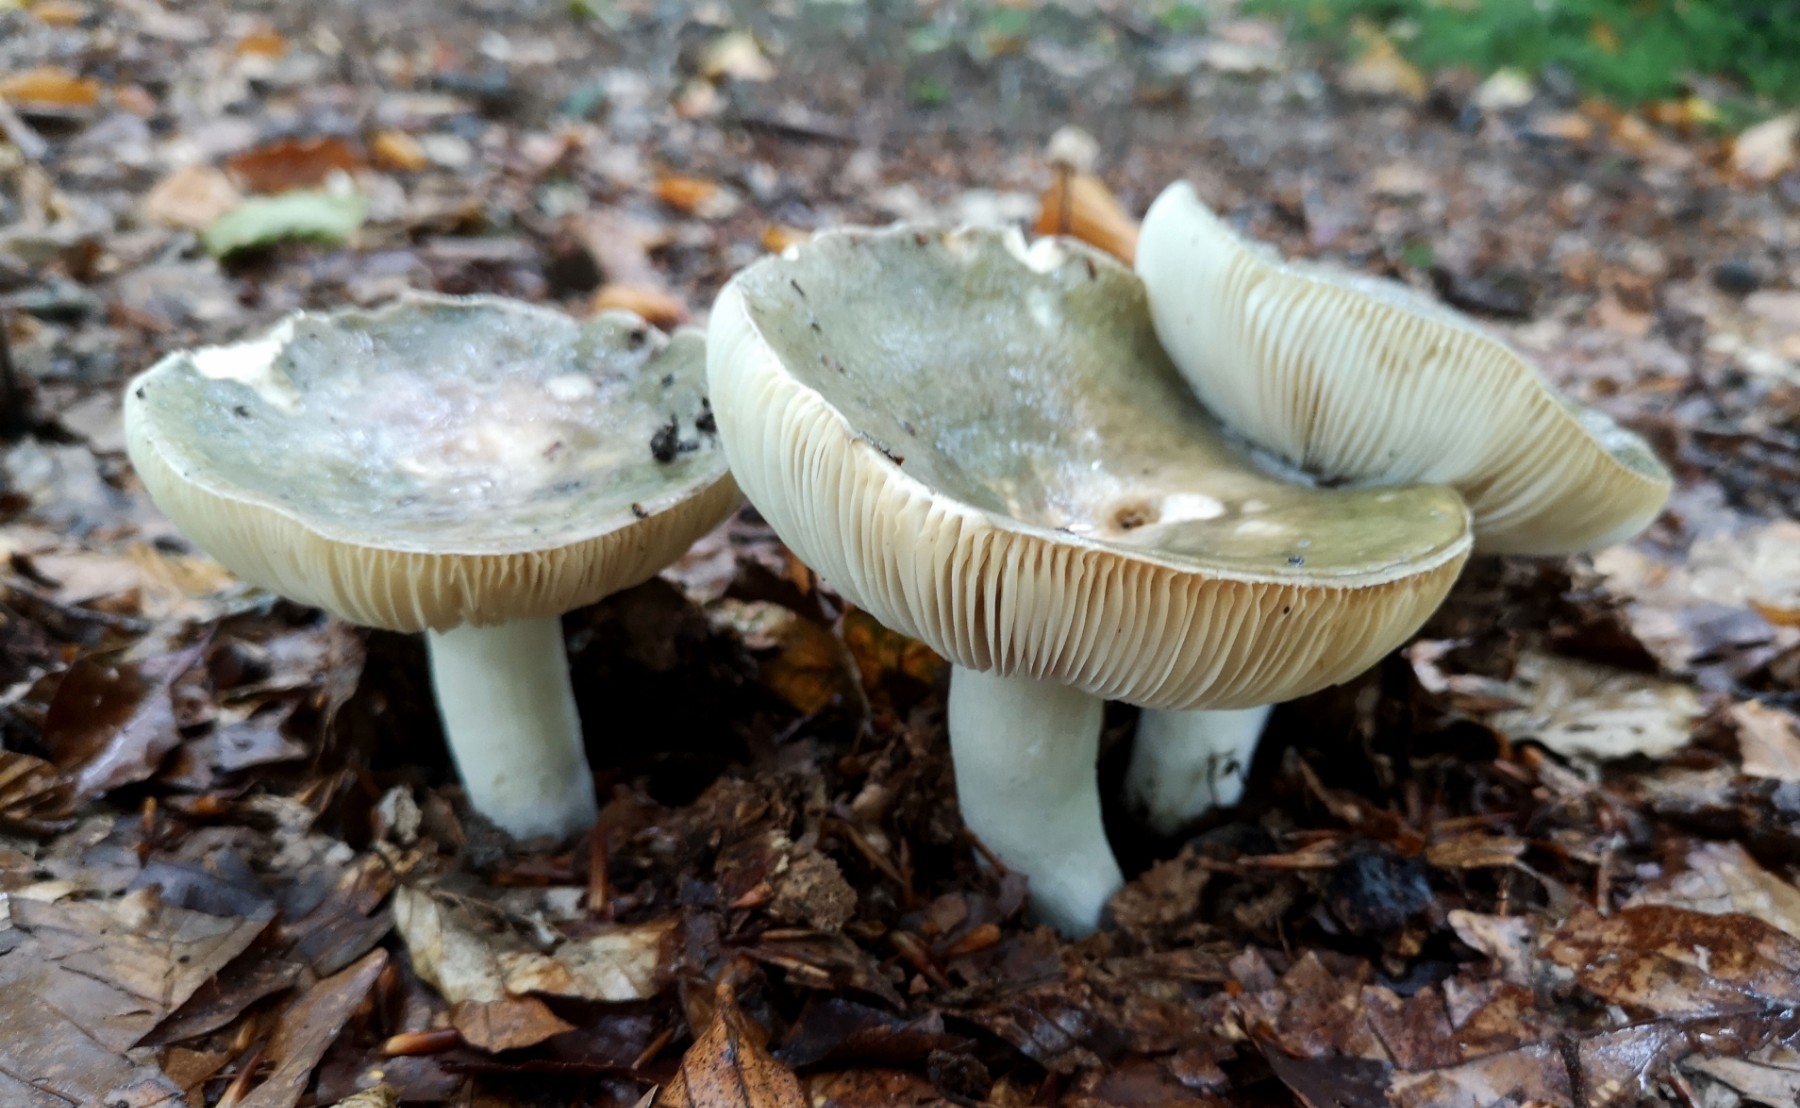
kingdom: Fungi
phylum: Basidiomycota
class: Agaricomycetes
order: Russulales
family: Russulaceae
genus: Russula
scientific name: Russula heterophylla
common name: gaffelbladet skørhat
